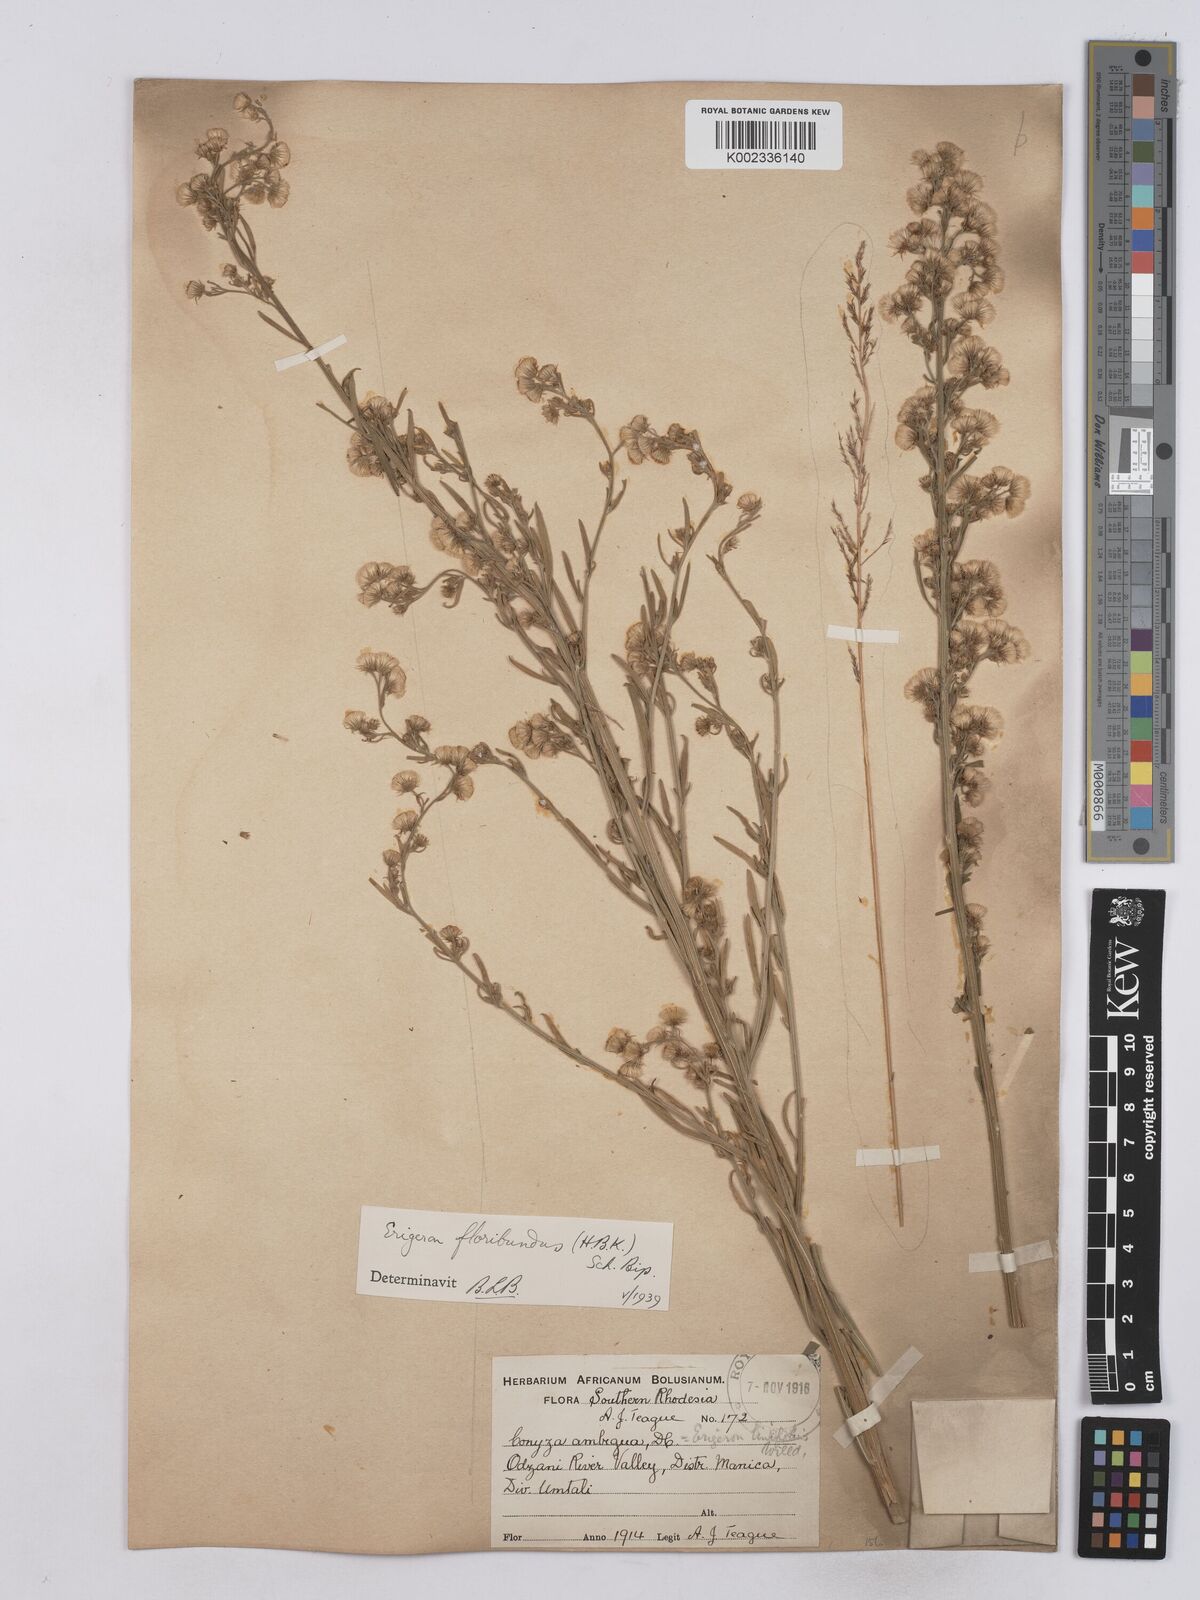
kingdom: Plantae
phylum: Tracheophyta
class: Magnoliopsida
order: Asterales
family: Asteraceae
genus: Erigeron
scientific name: Erigeron floribundus
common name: Bilbao fleabane
